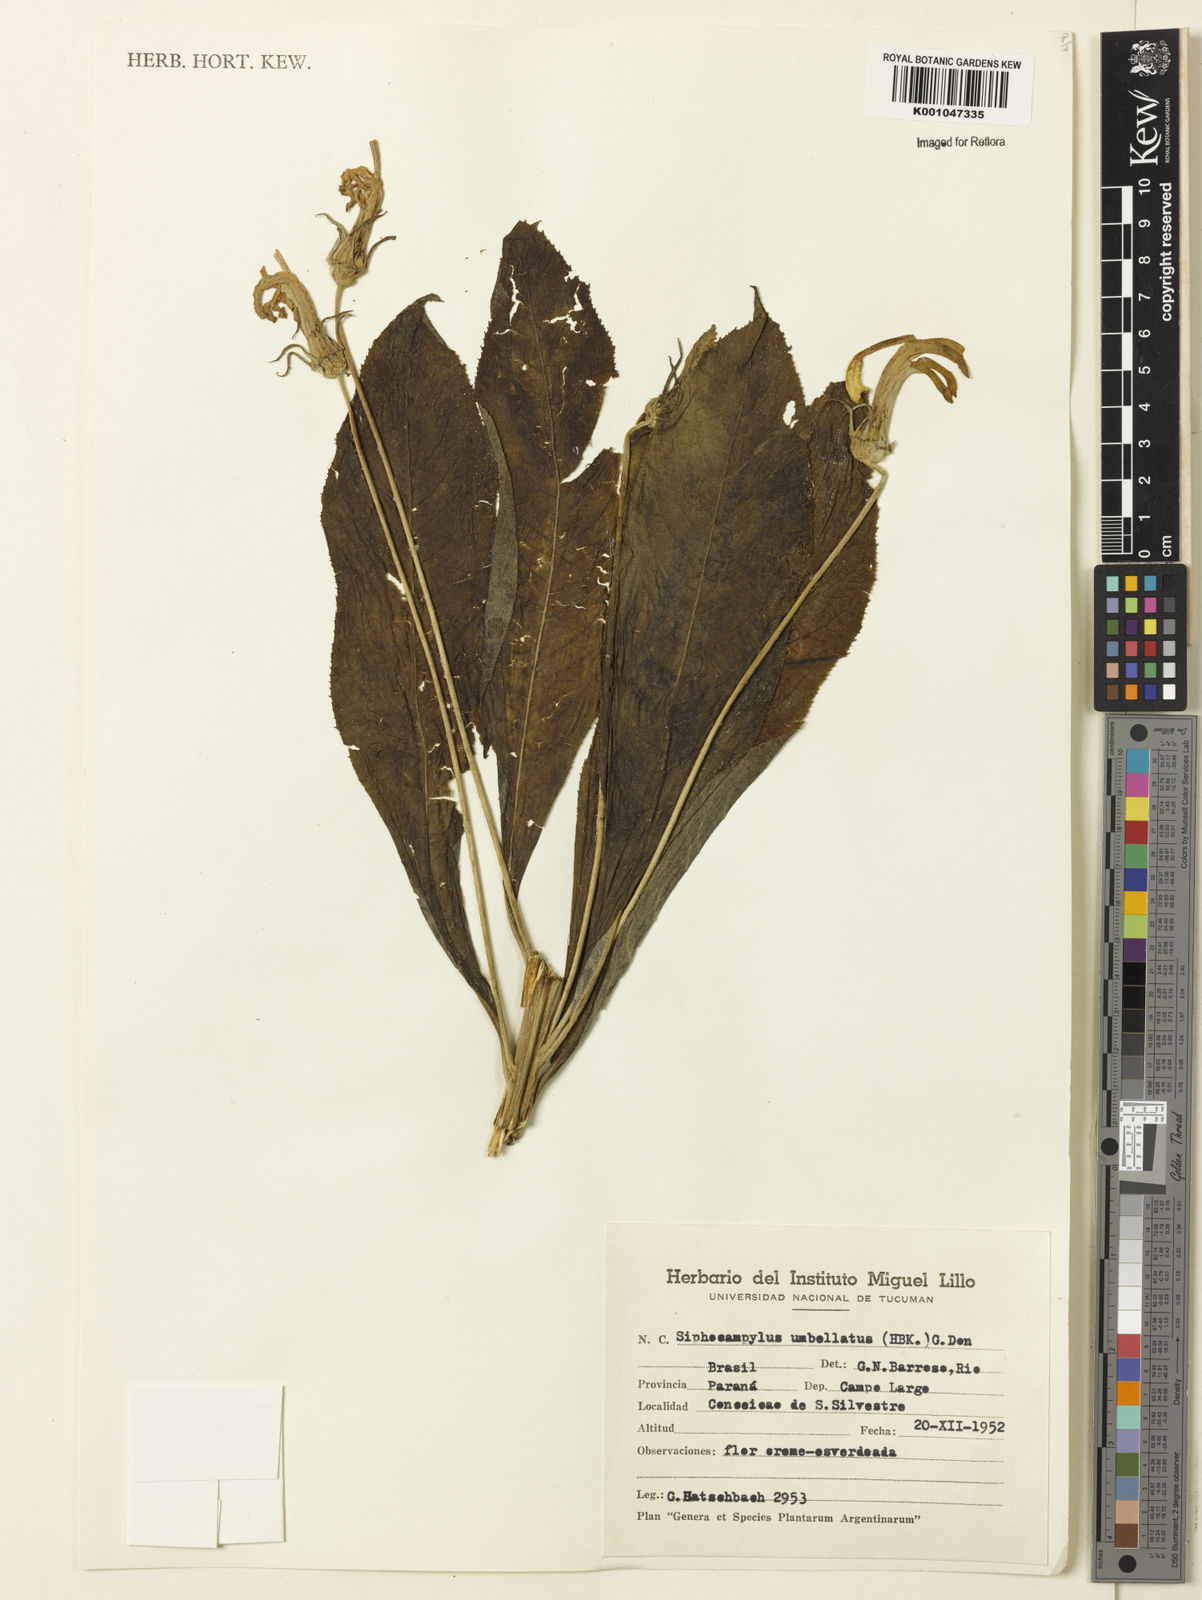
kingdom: Plantae
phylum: Tracheophyta
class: Magnoliopsida
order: Asterales
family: Campanulaceae
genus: Siphocampylus
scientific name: Siphocampylus umbellatus
